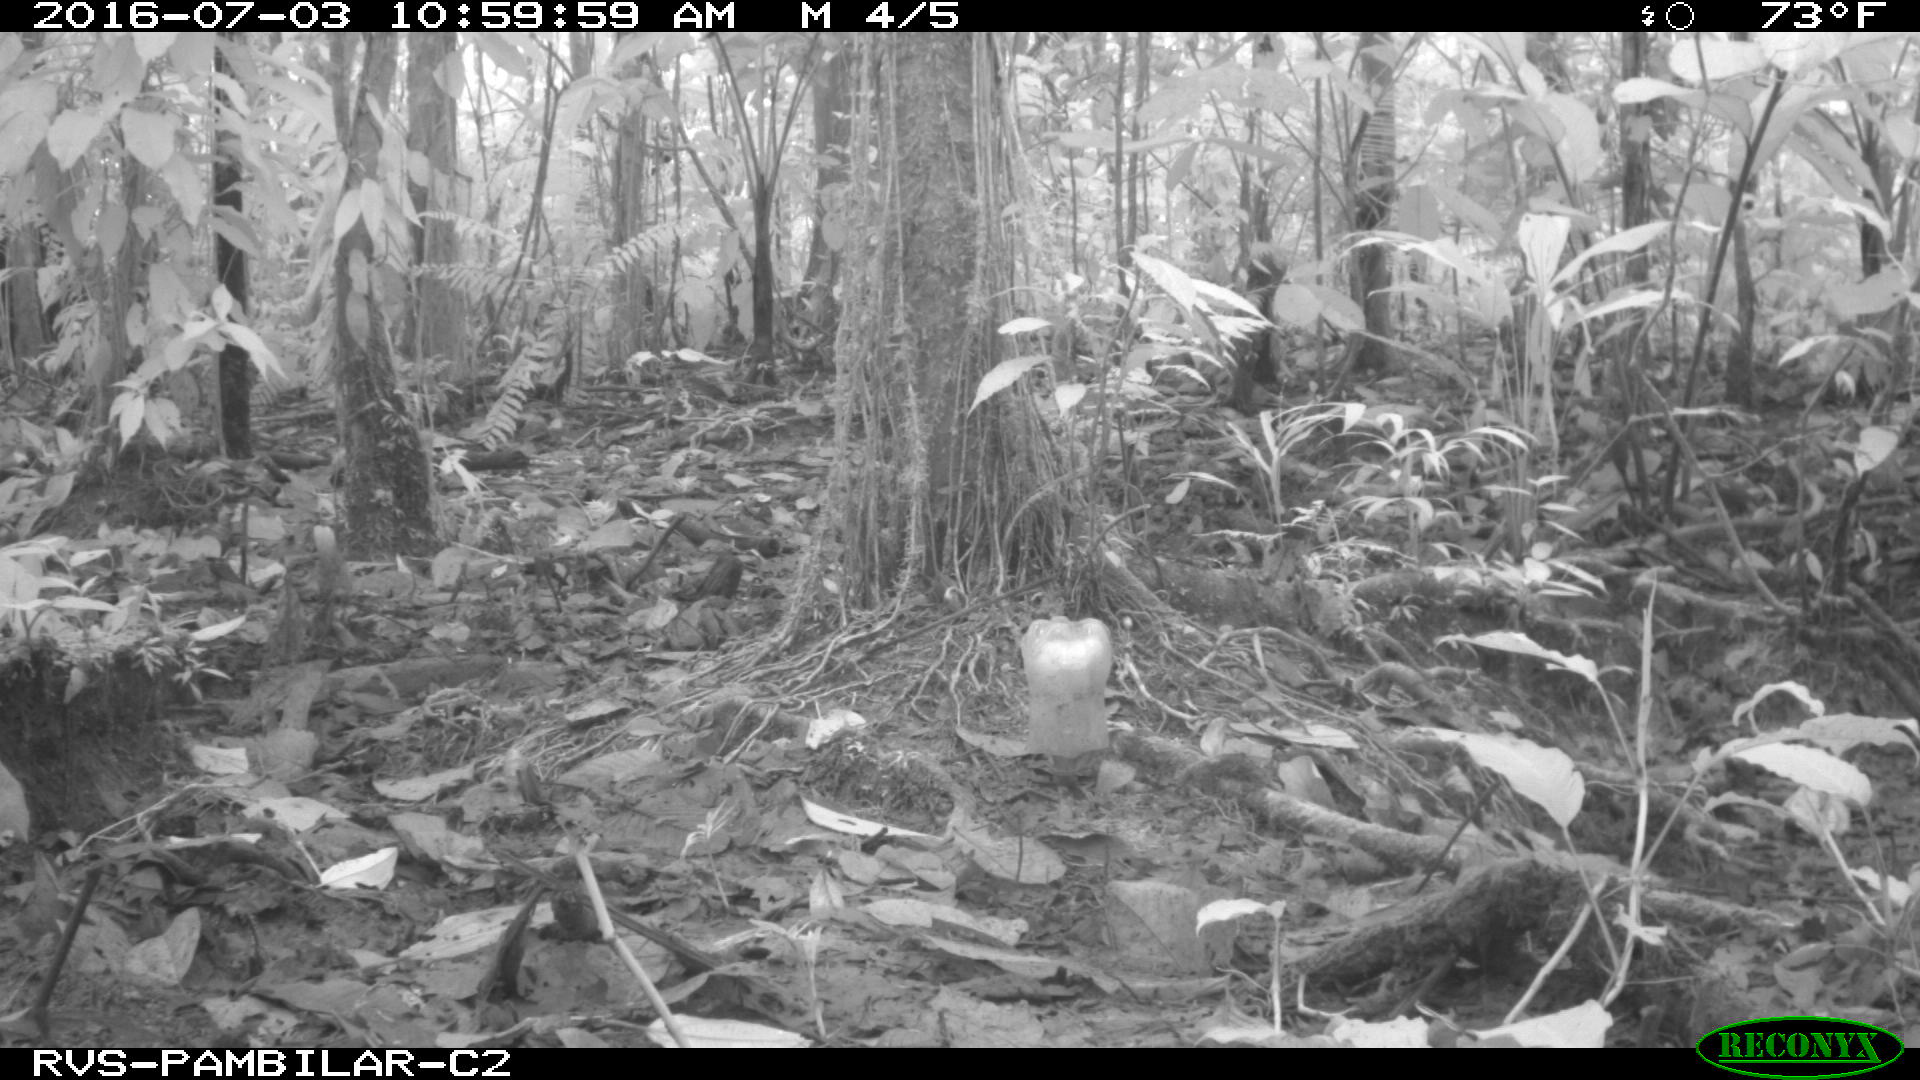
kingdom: Animalia
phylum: Chordata
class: Mammalia
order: Artiodactyla
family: Tayassuidae
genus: Pecari
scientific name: Pecari tajacu
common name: Collared peccary
